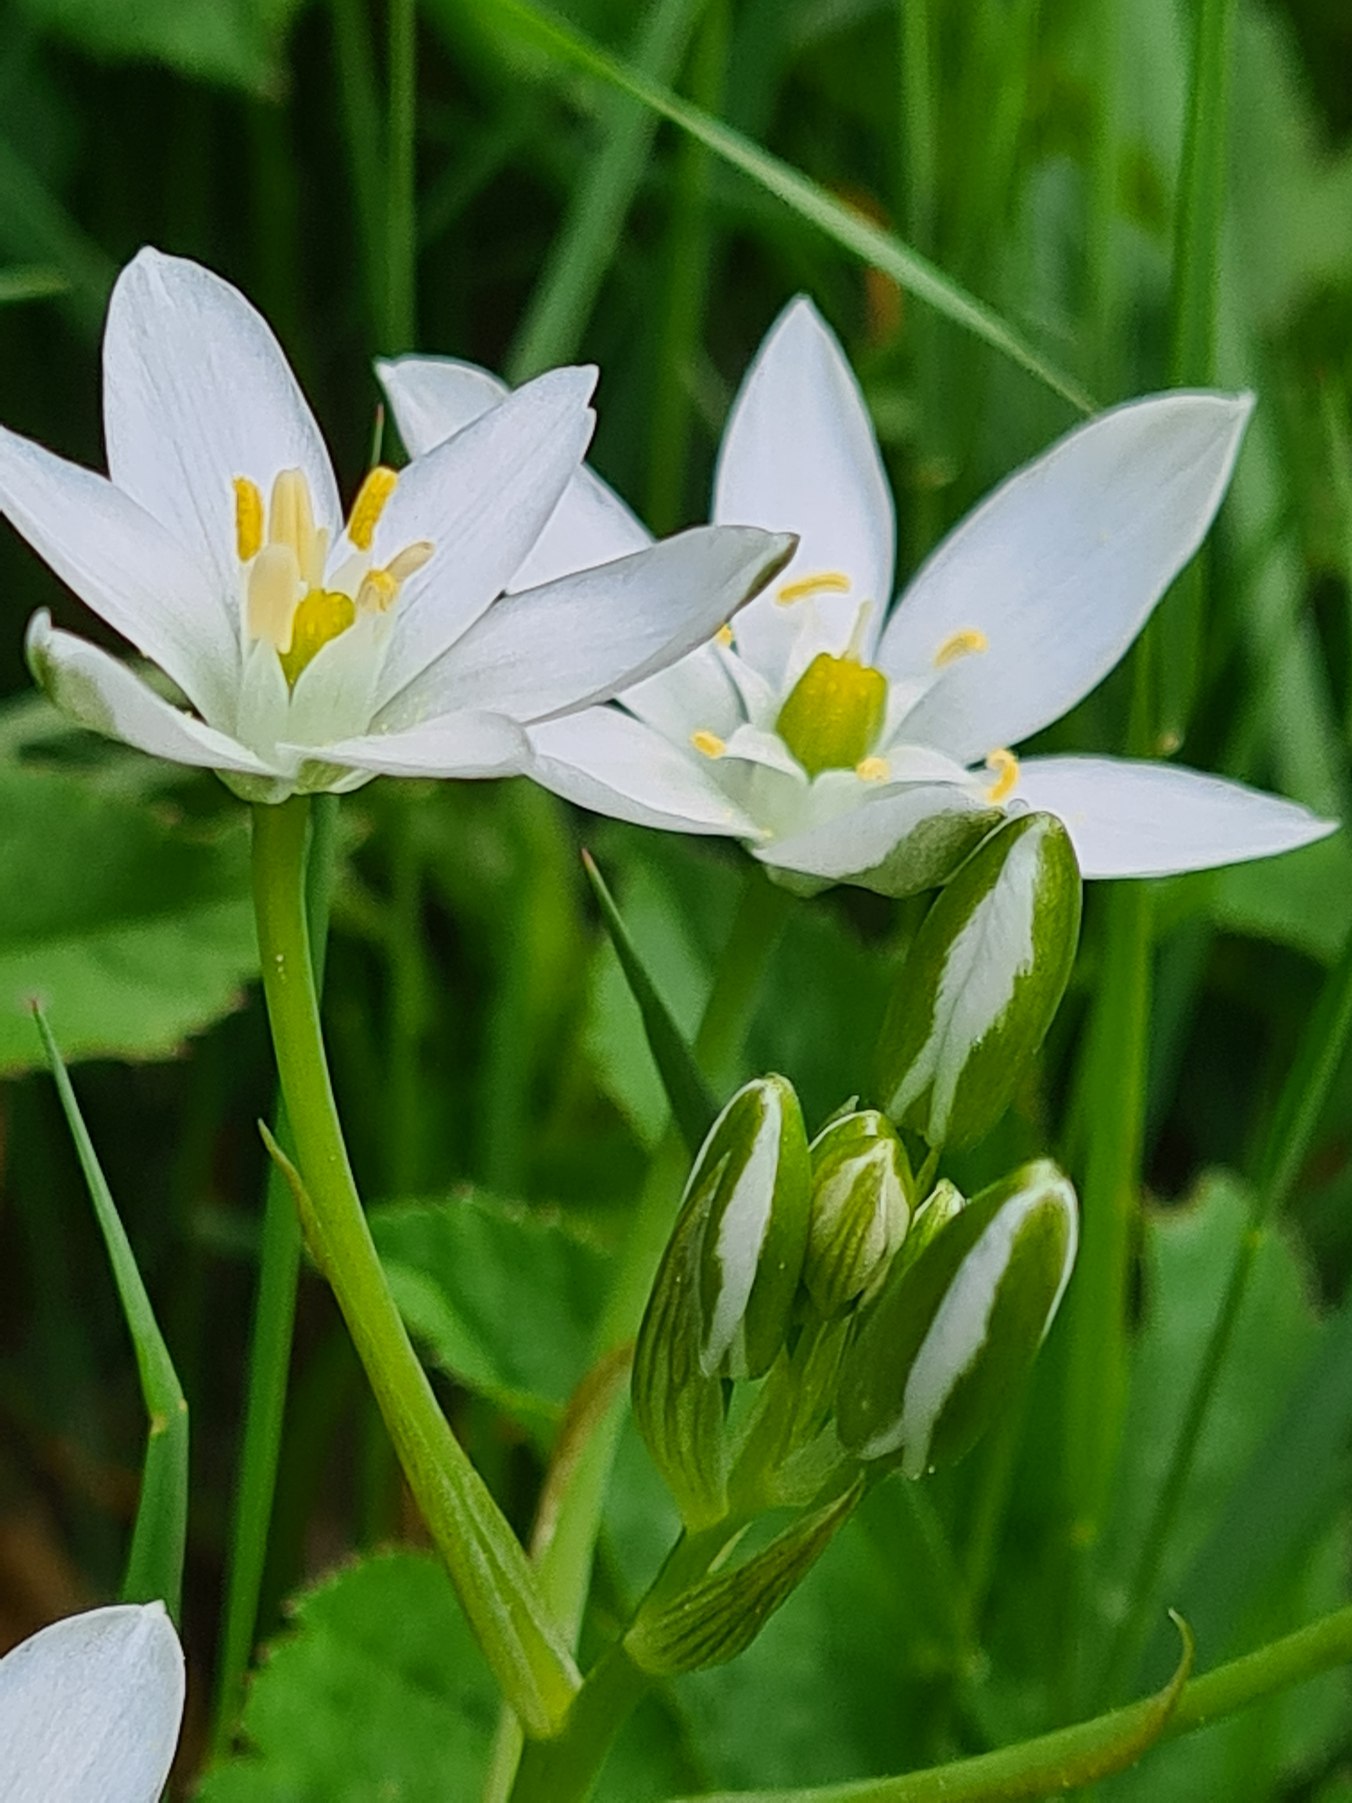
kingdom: Plantae
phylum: Tracheophyta
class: Liliopsida
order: Asparagales
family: Asparagaceae
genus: Ornithogalum
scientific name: Ornithogalum umbellatum
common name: Kost-fuglemælk
